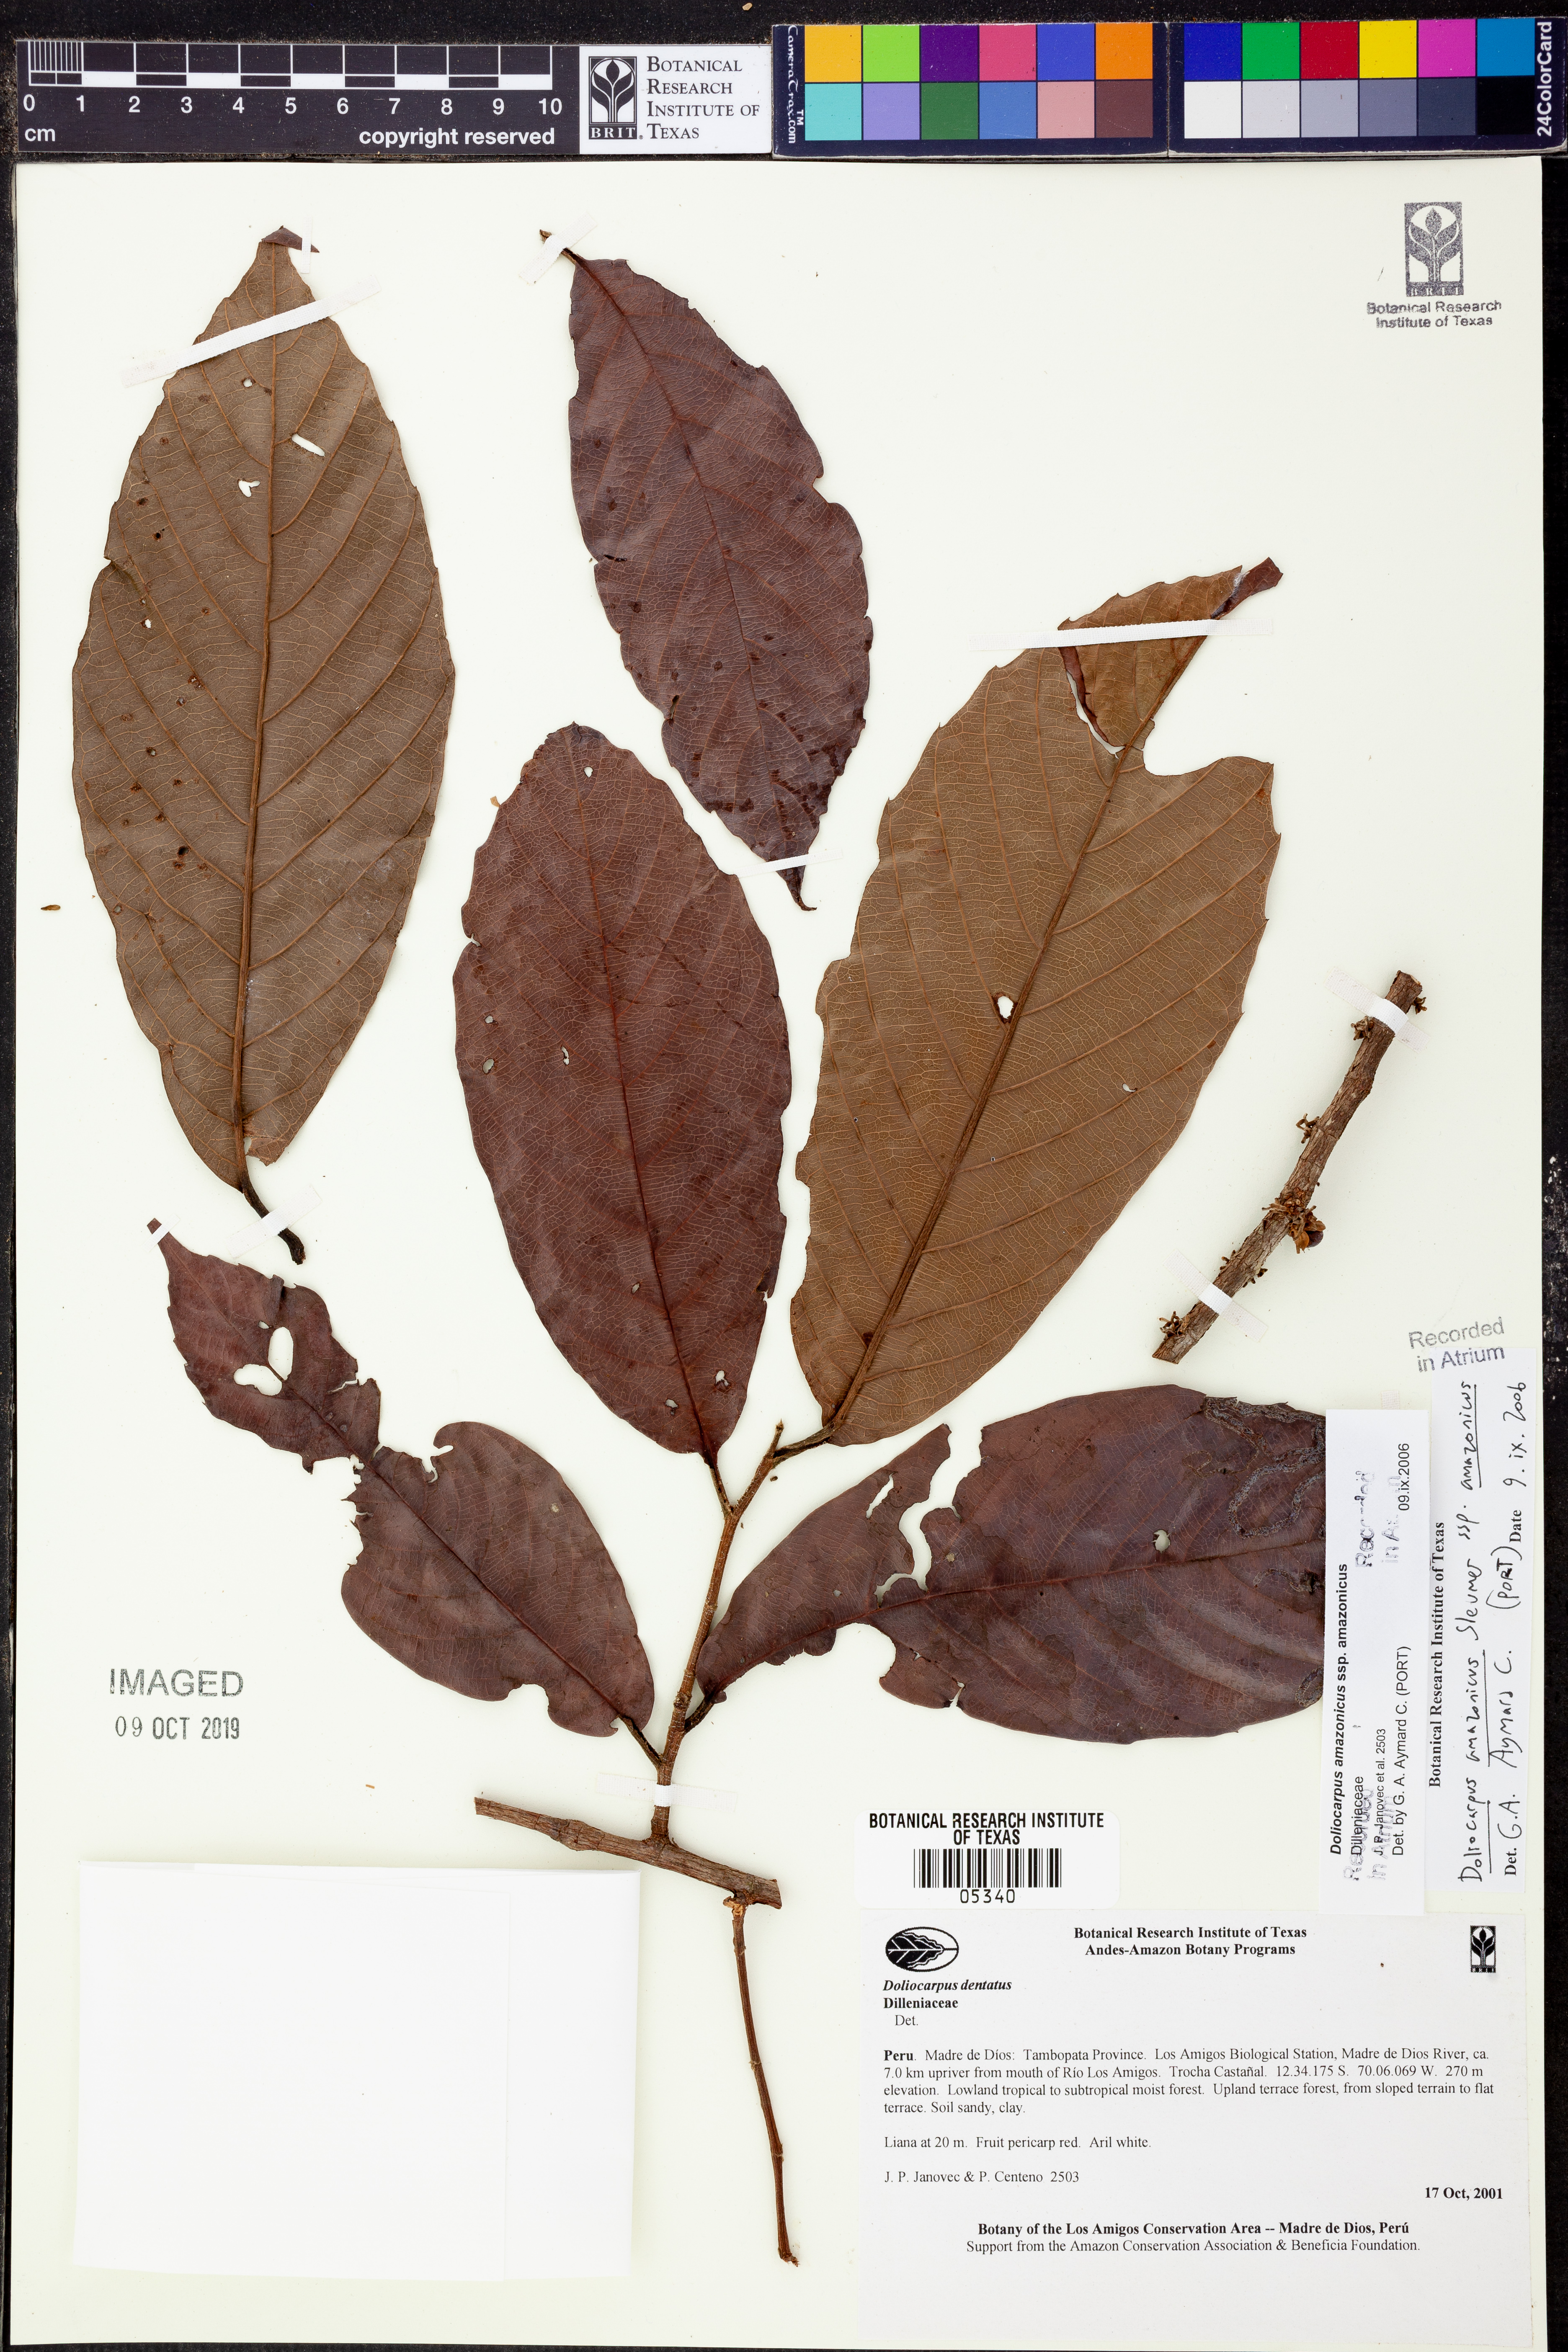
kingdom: Plantae
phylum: Tracheophyta
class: Magnoliopsida
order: Dilleniales
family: Dilleniaceae
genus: Doliocarpus
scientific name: Doliocarpus
